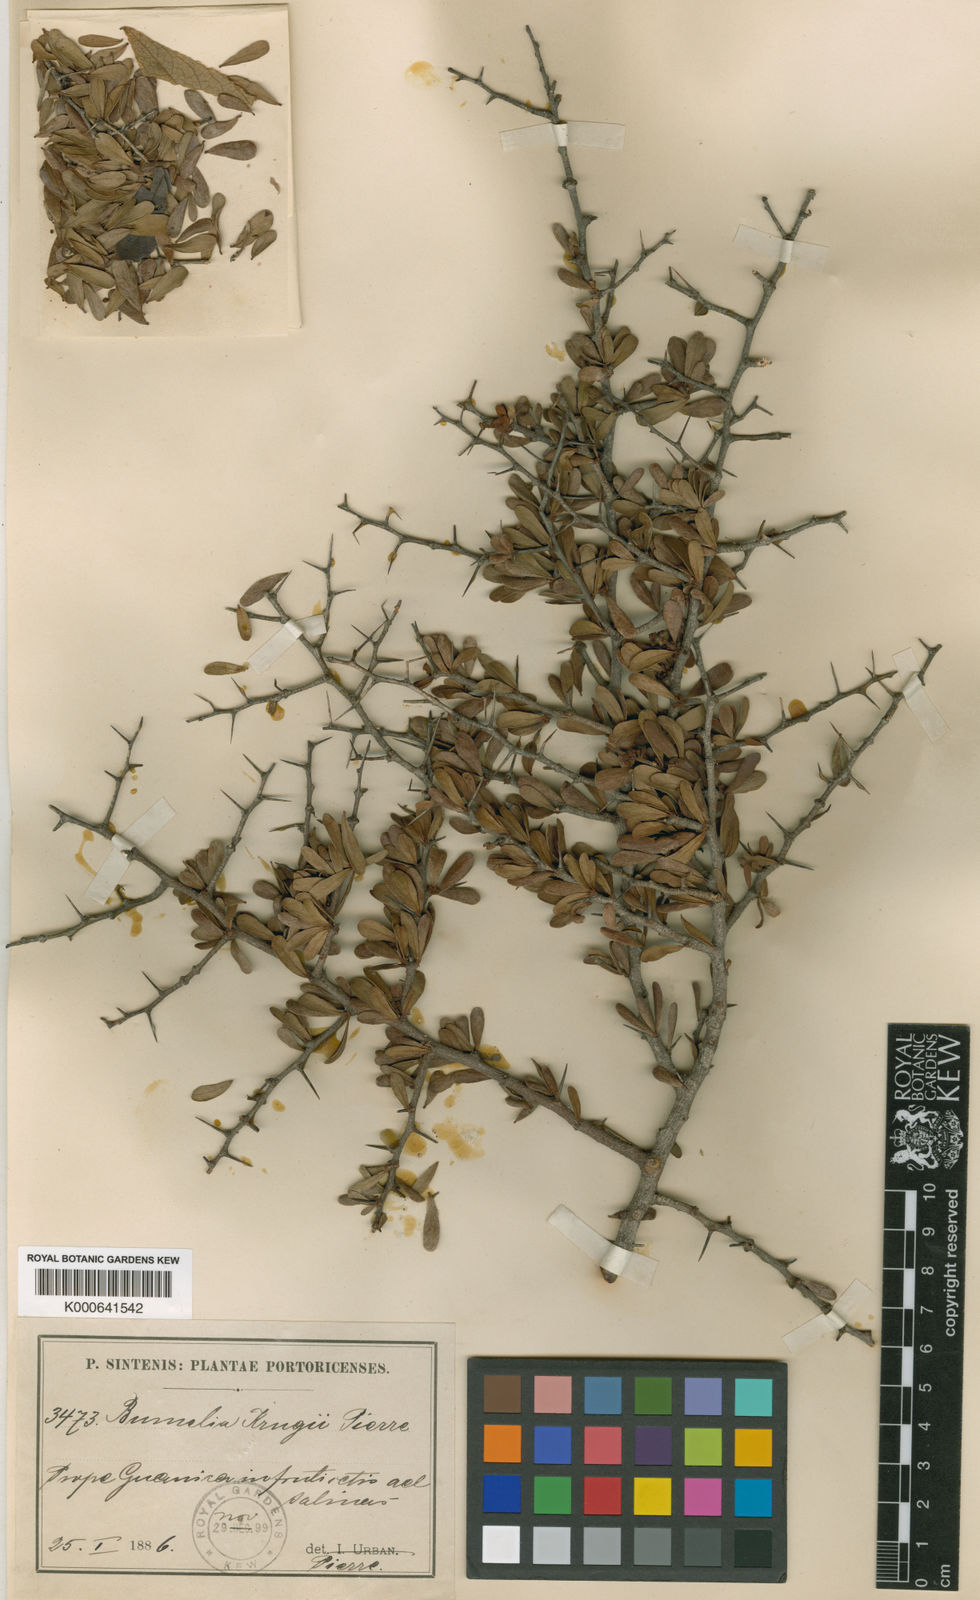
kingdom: Plantae
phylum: Tracheophyta
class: Magnoliopsida
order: Ericales
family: Sapotaceae
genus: Sideroxylon
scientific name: Sideroxylon obovatum
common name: Breakbill
